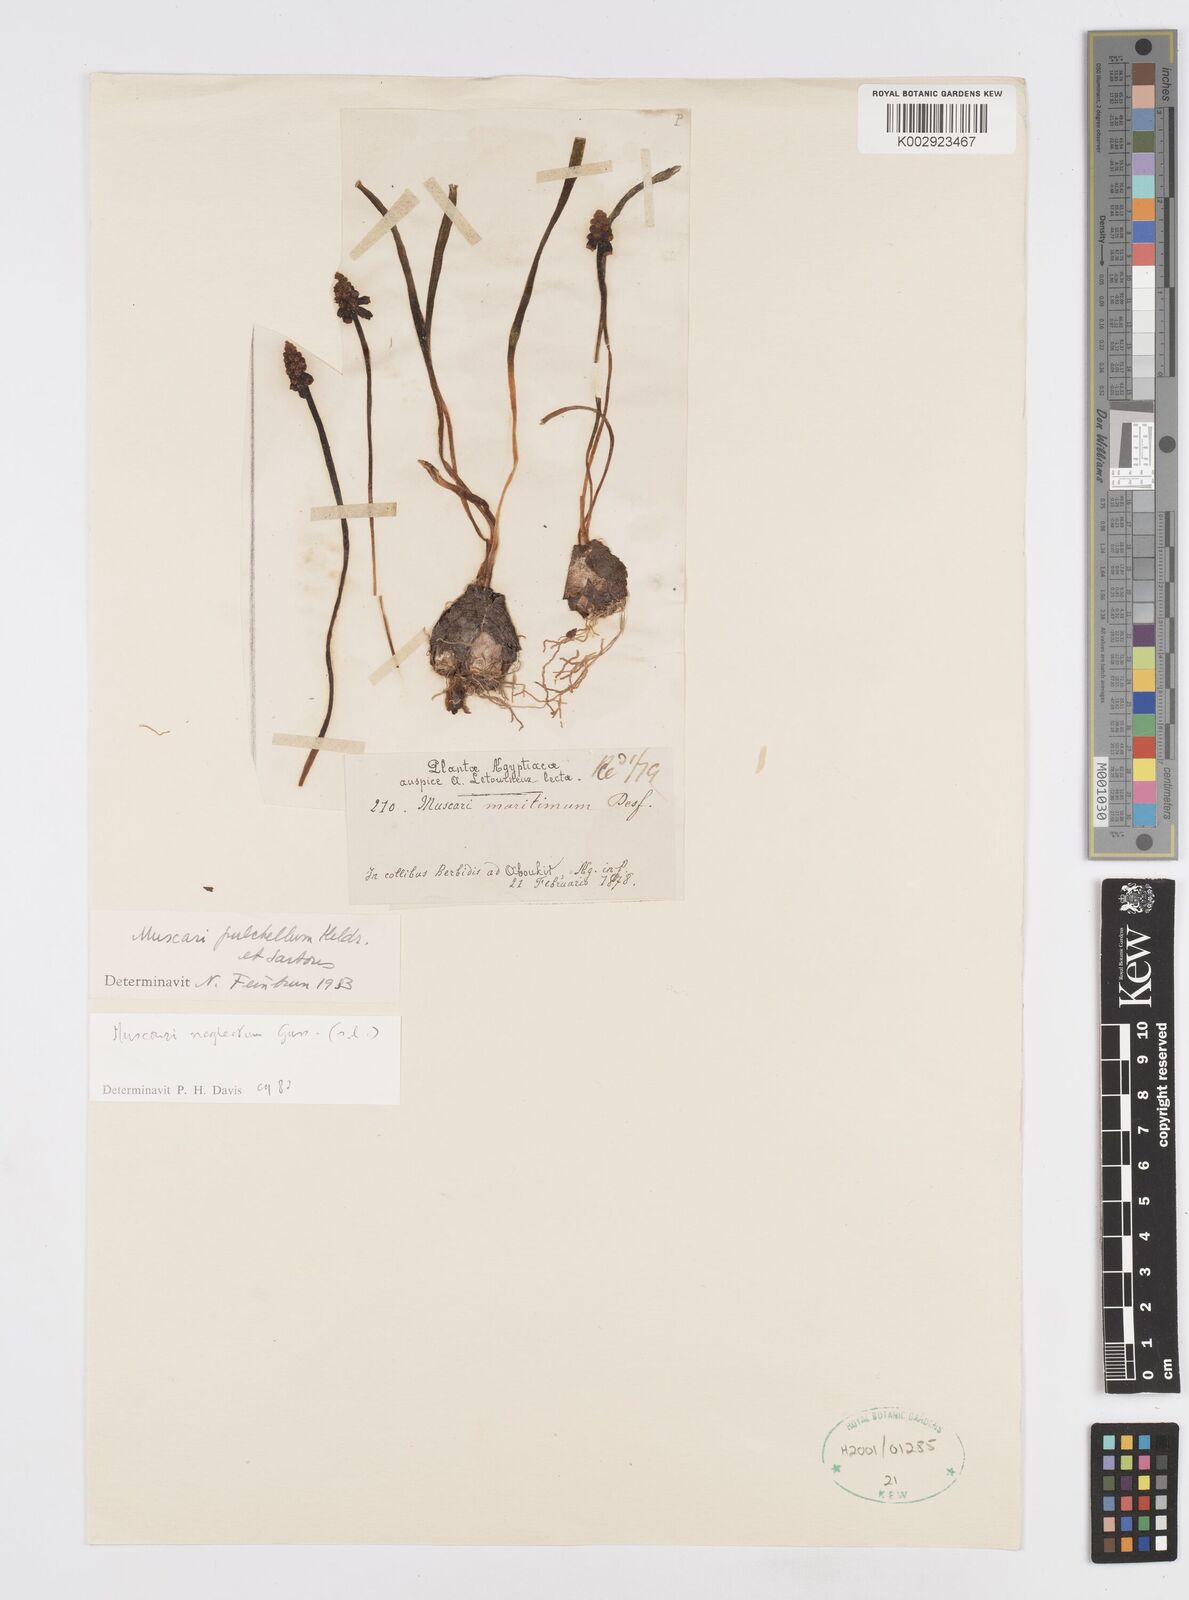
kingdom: Plantae
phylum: Tracheophyta
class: Liliopsida
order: Asparagales
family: Asparagaceae
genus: Muscari
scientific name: Muscari neglectum
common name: Grape-hyacinth
